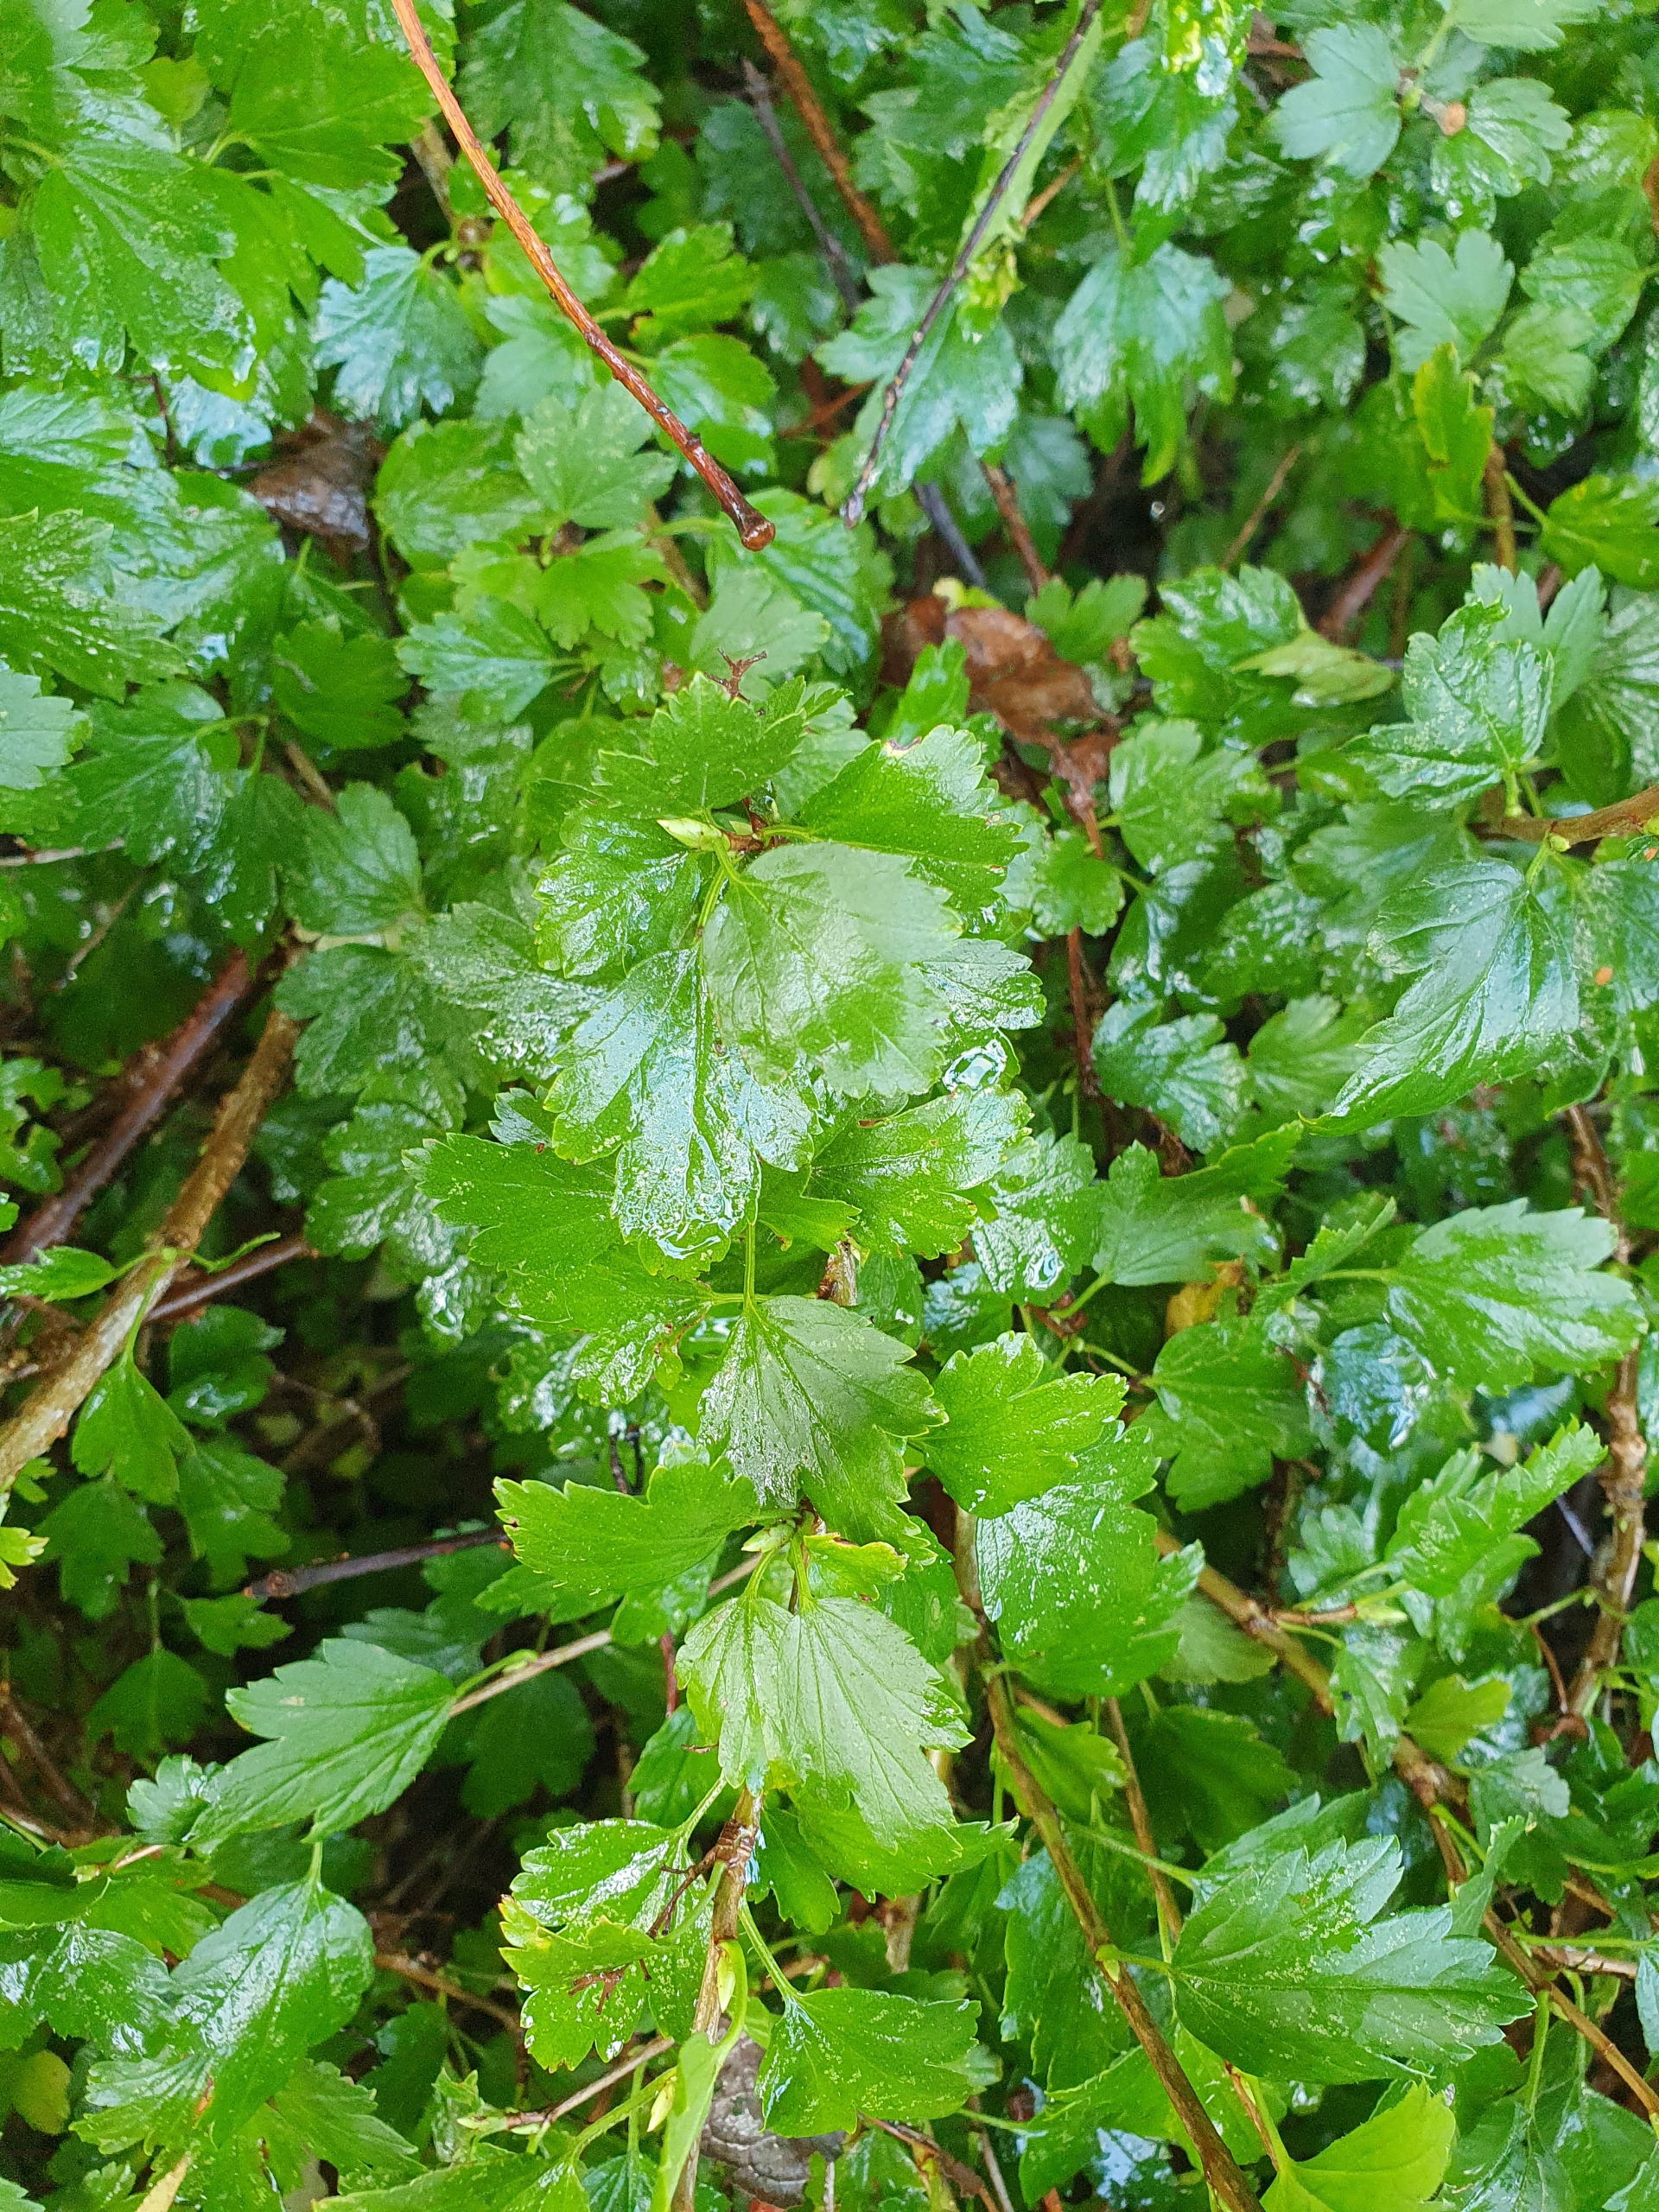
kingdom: Plantae
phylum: Tracheophyta
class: Magnoliopsida
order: Saxifragales
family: Grossulariaceae
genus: Ribes
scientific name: Ribes alpinum
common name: Fjeld-ribs
